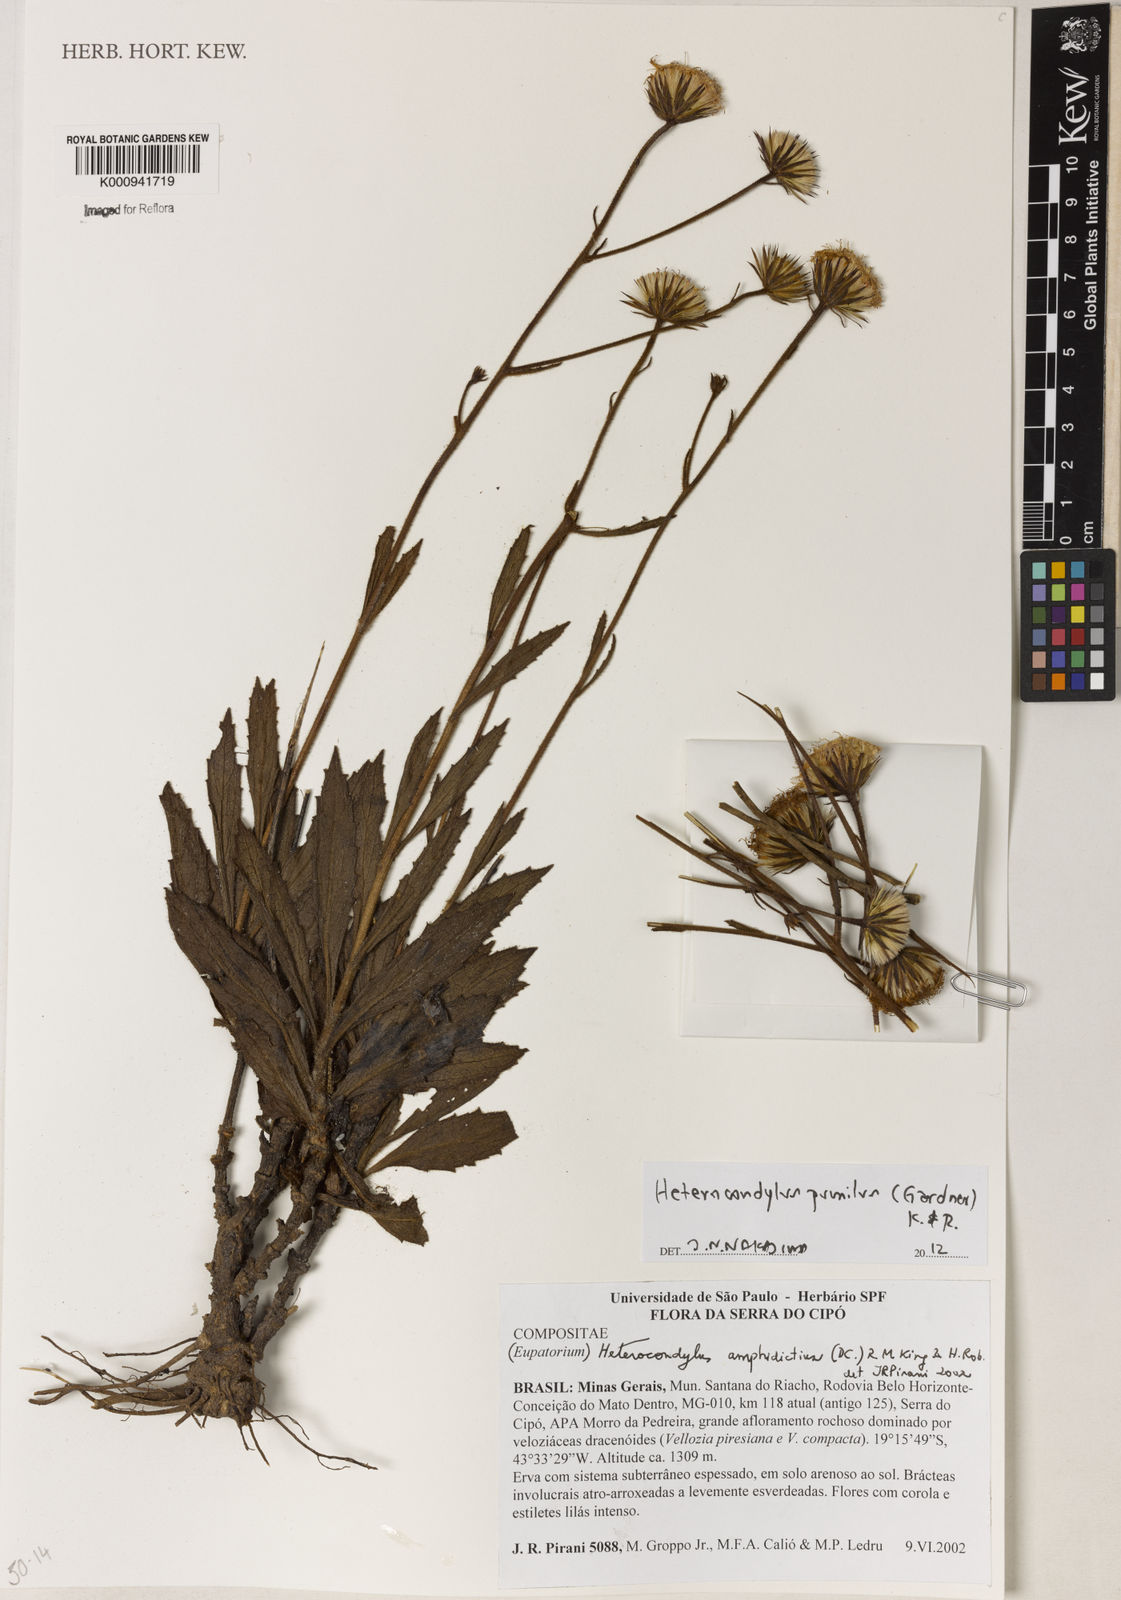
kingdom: Plantae
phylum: Tracheophyta
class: Magnoliopsida
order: Asterales
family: Asteraceae
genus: Heterocondylus
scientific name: Heterocondylus pumilus
